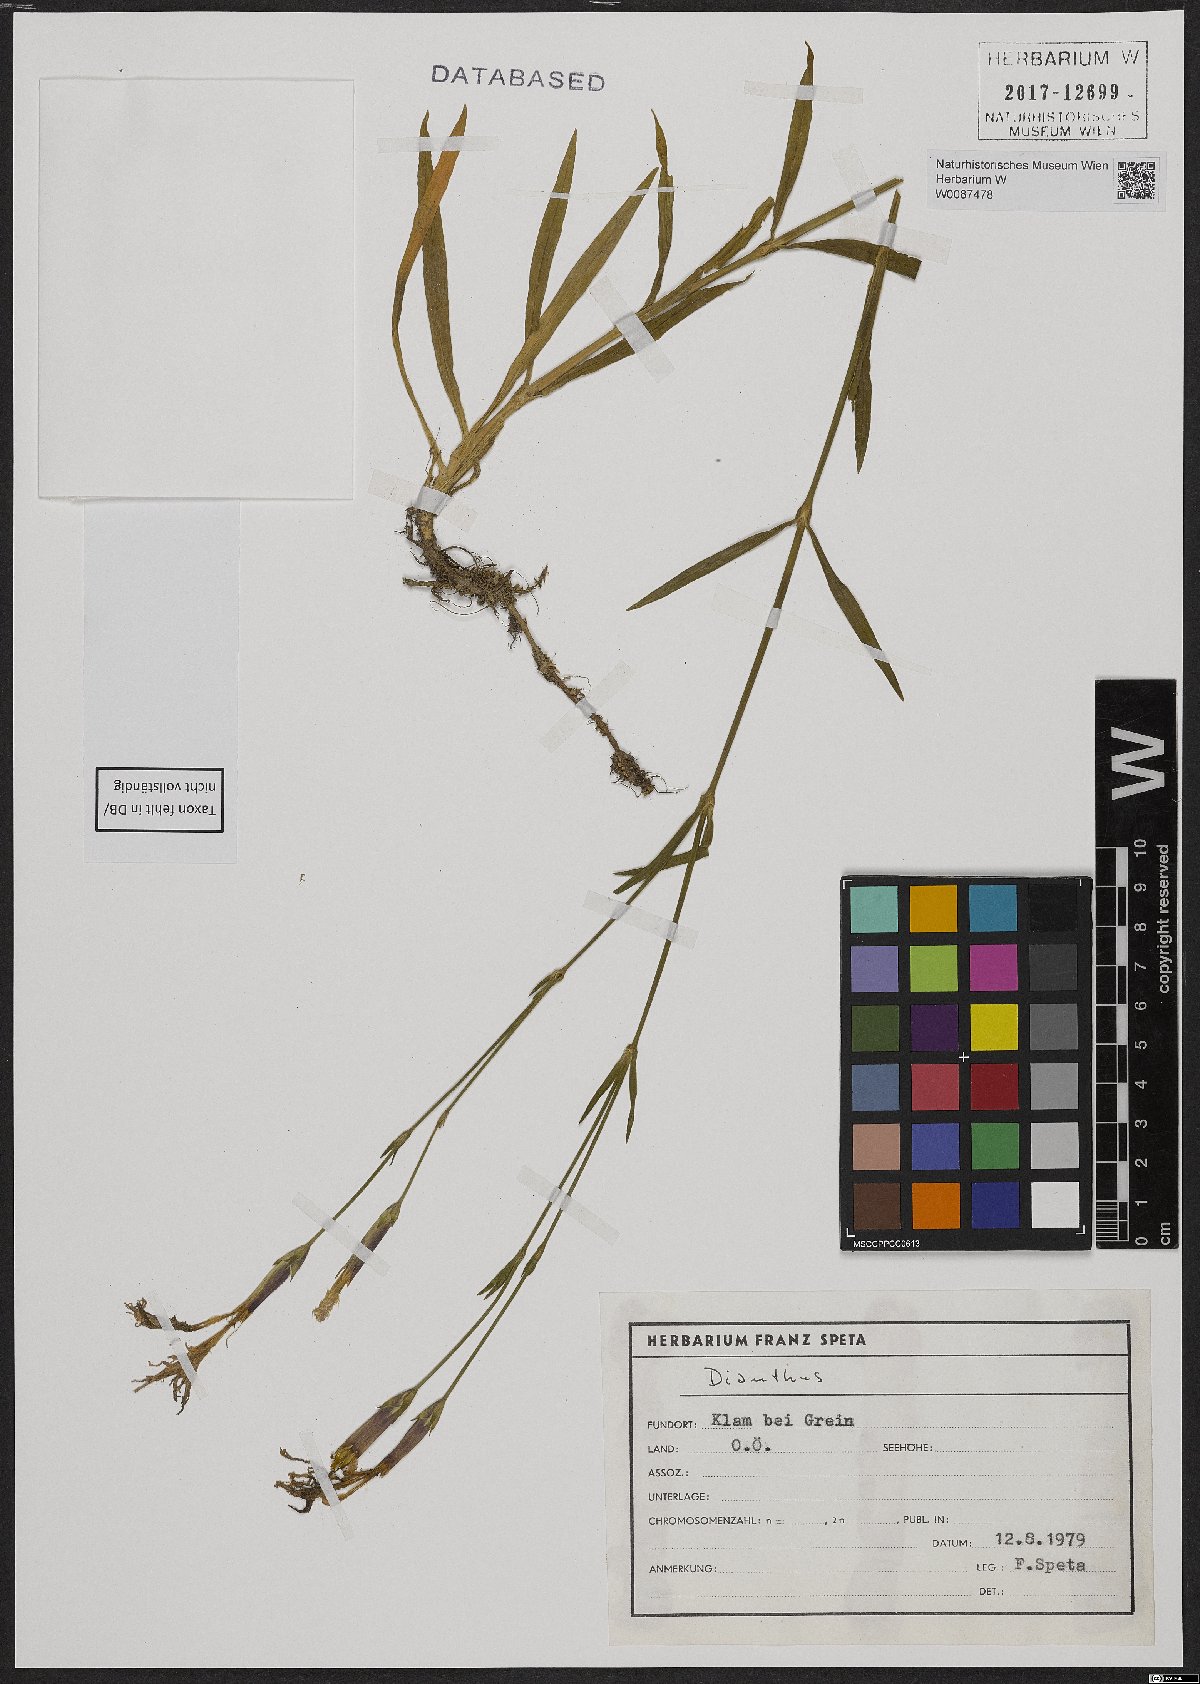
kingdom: Plantae
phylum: Tracheophyta
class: Magnoliopsida
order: Caryophyllales
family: Caryophyllaceae
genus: Dianthus
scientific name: Dianthus superbus
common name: Fringed pink
